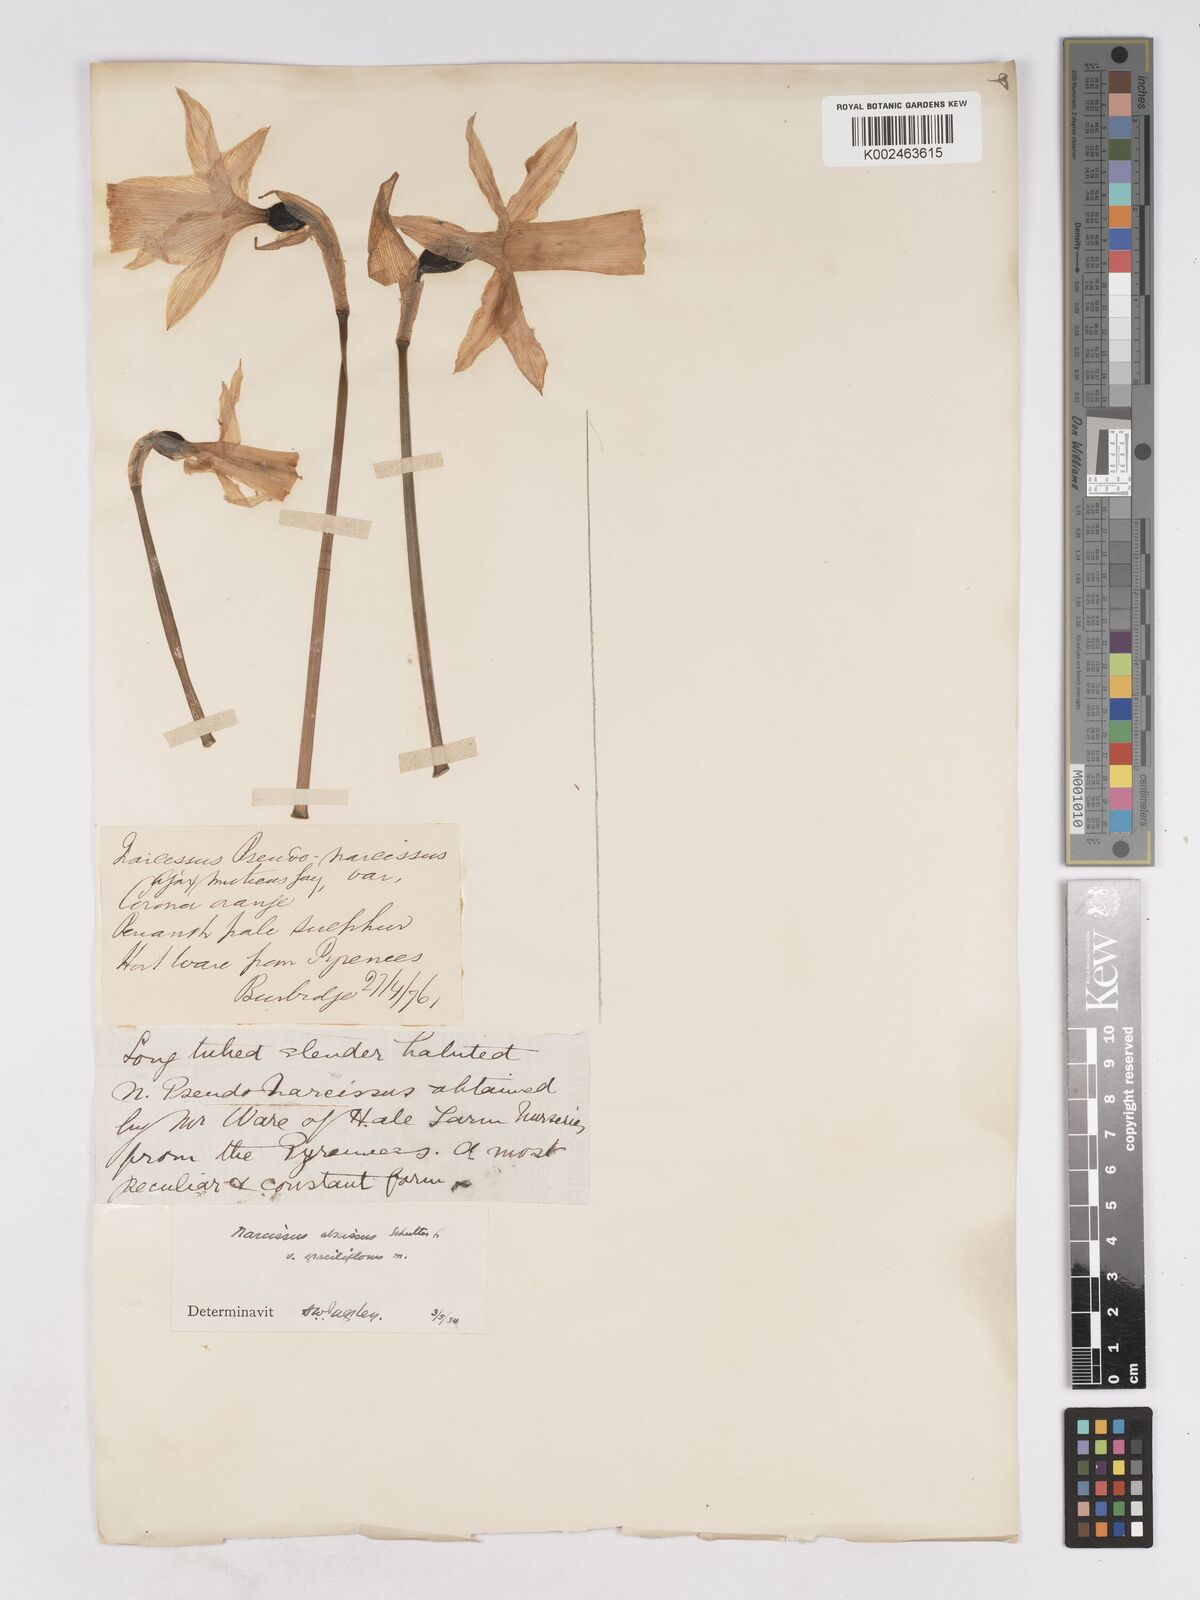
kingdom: Plantae
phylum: Tracheophyta
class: Liliopsida
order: Asparagales
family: Amaryllidaceae
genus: Narcissus
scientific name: Narcissus abscissus
